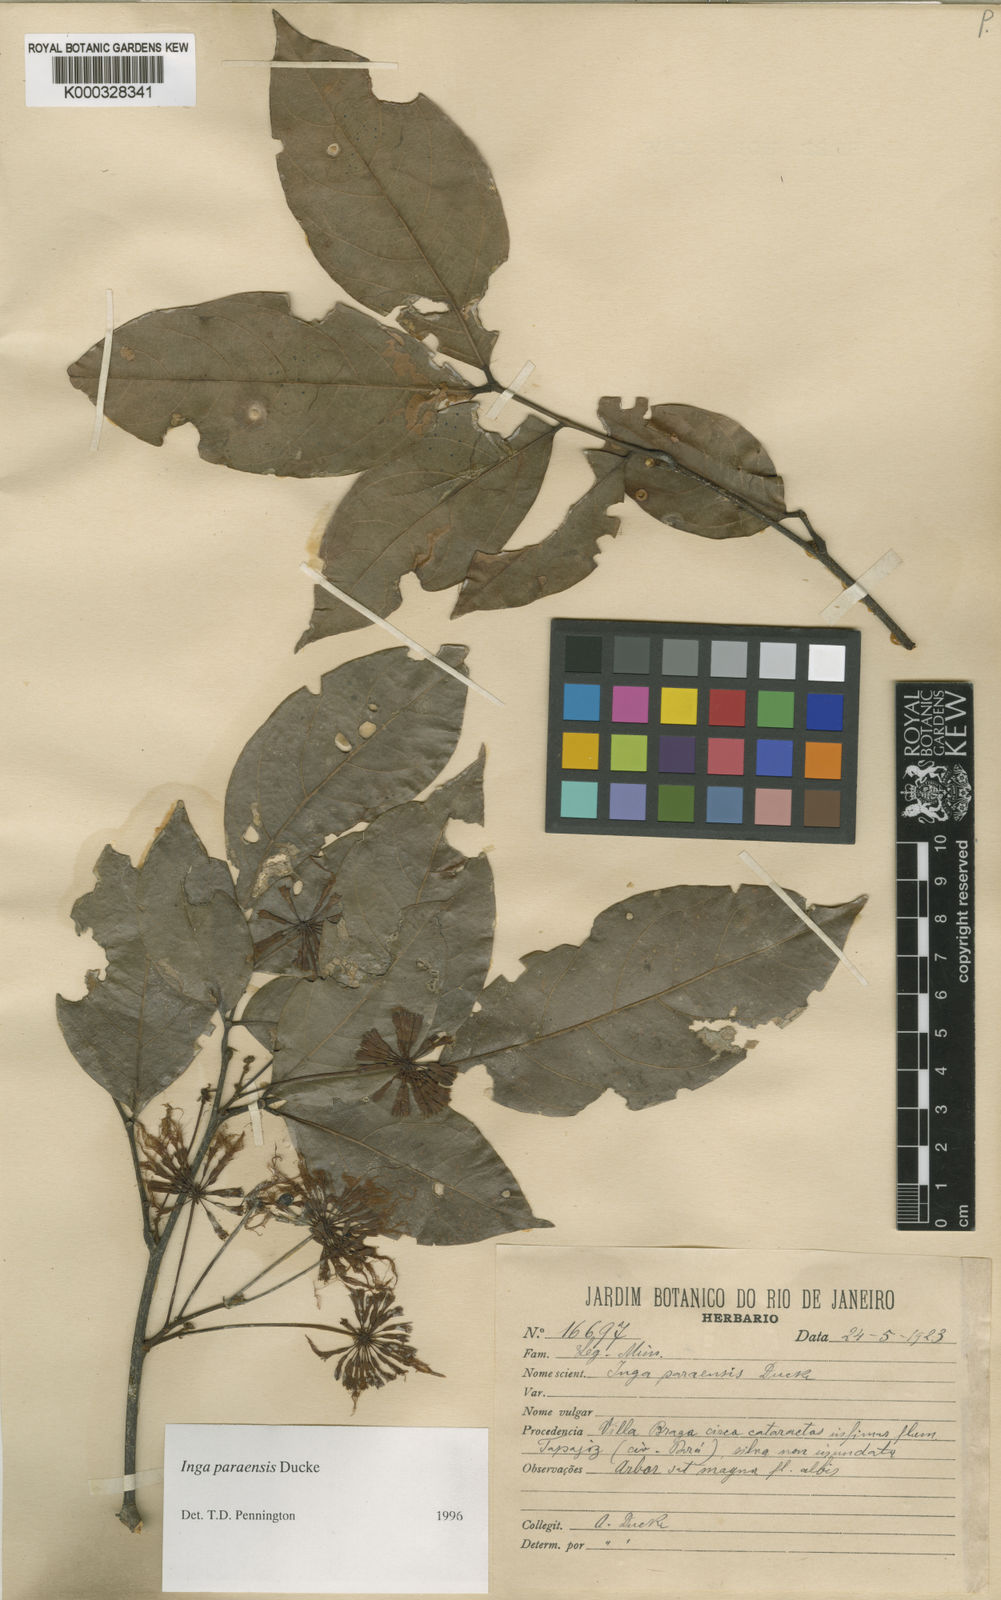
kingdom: Plantae
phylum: Tracheophyta
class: Magnoliopsida
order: Fabales
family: Fabaceae
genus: Inga
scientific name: Inga paraensis
